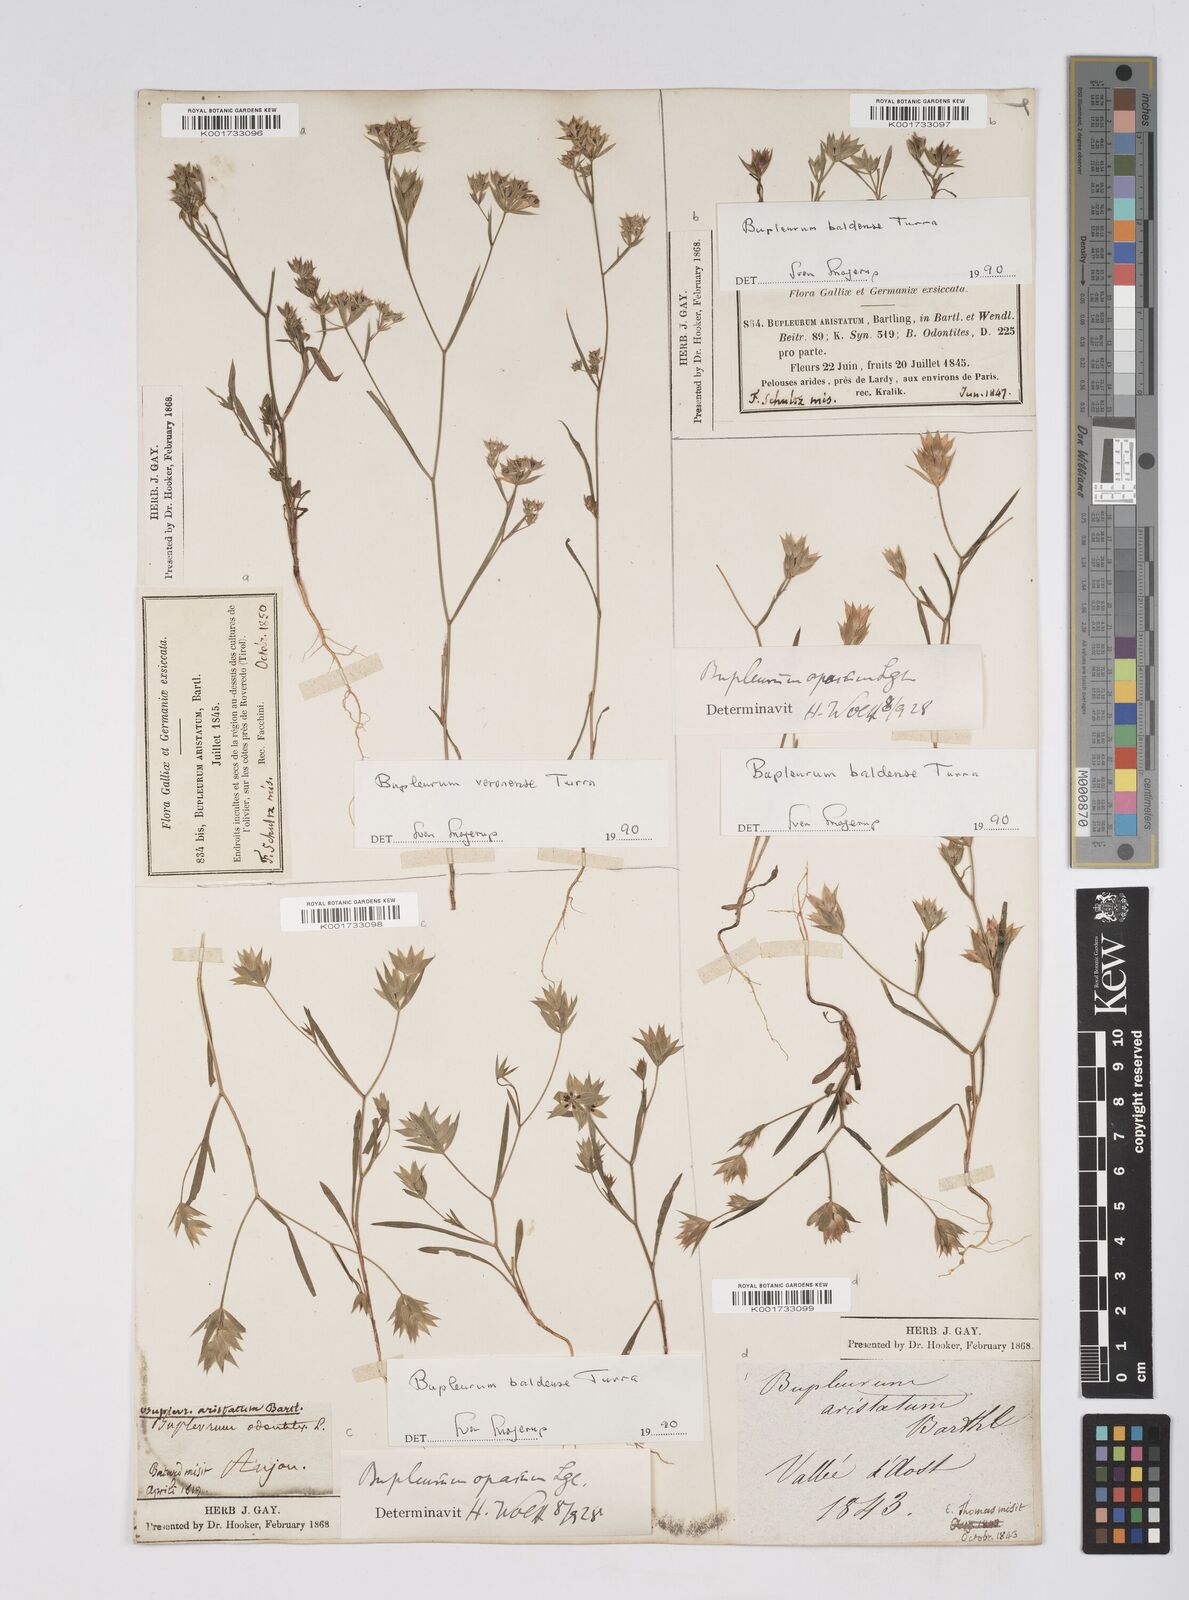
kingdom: Plantae
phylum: Tracheophyta
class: Magnoliopsida
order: Apiales
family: Apiaceae
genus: Bupleurum
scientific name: Bupleurum baldense
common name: Small hare's-ear
